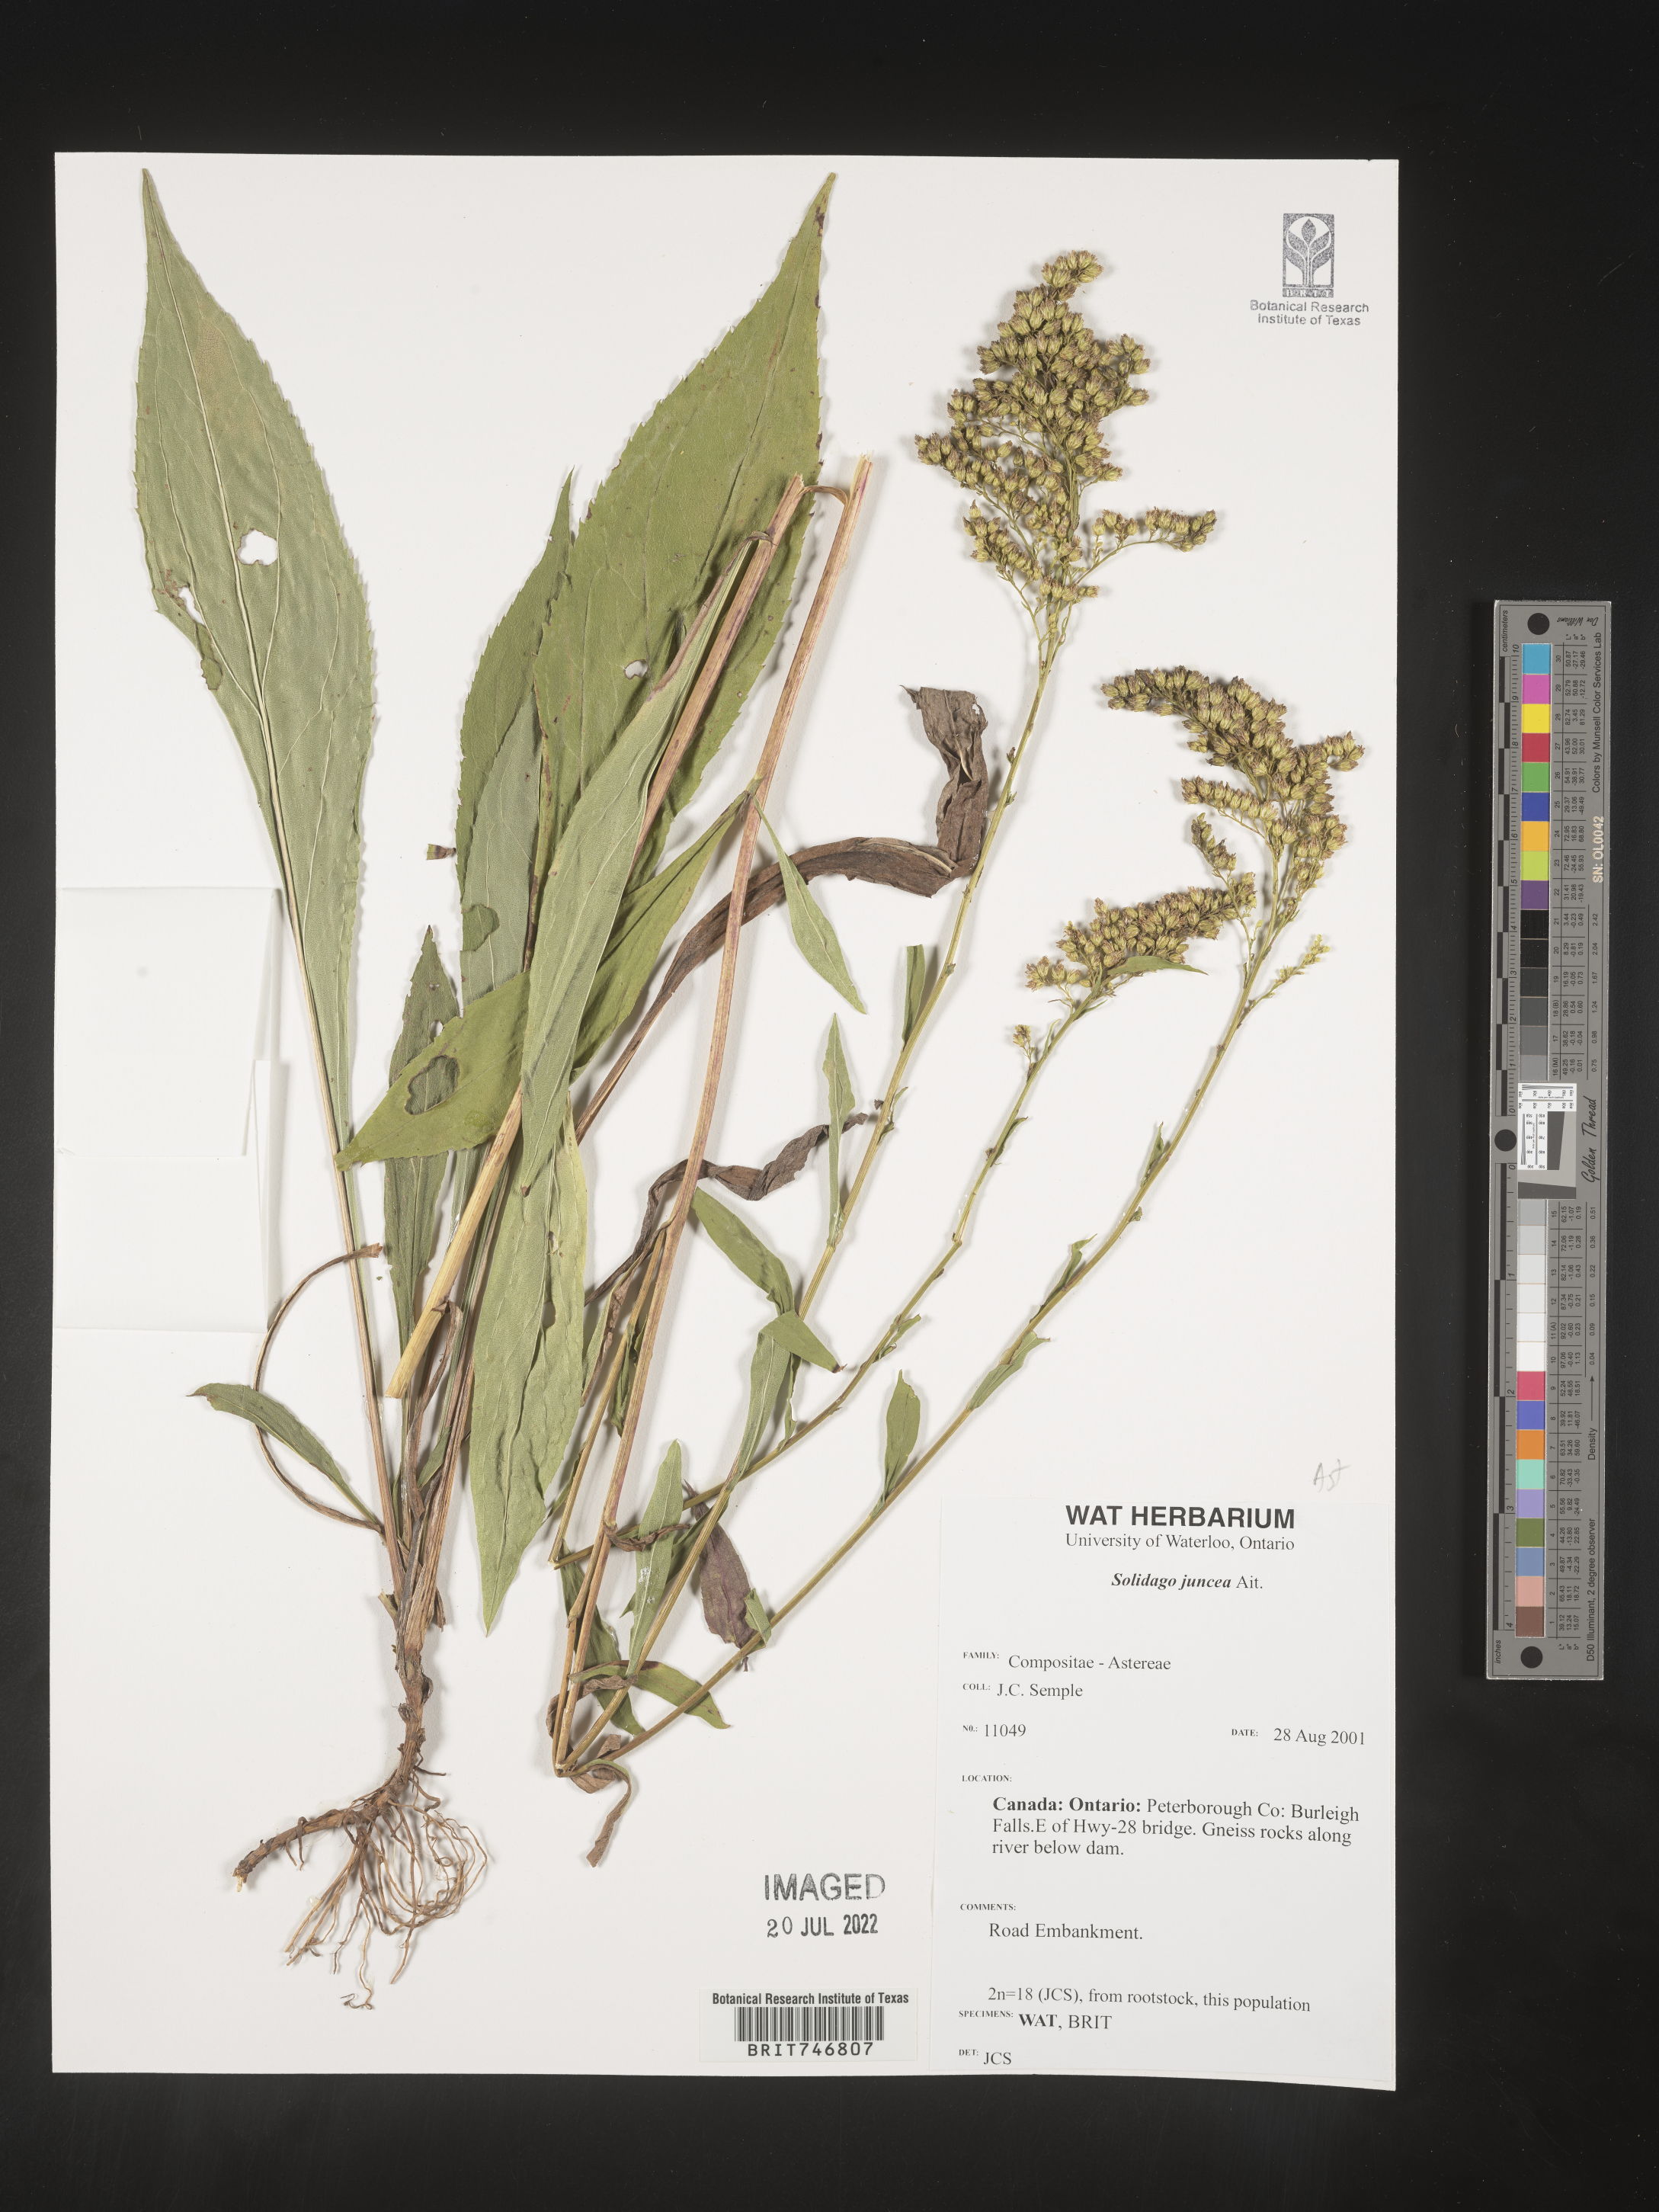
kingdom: Plantae
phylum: Tracheophyta
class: Magnoliopsida
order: Asterales
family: Asteraceae
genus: Solidago
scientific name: Solidago juncea
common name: Early goldenrod
